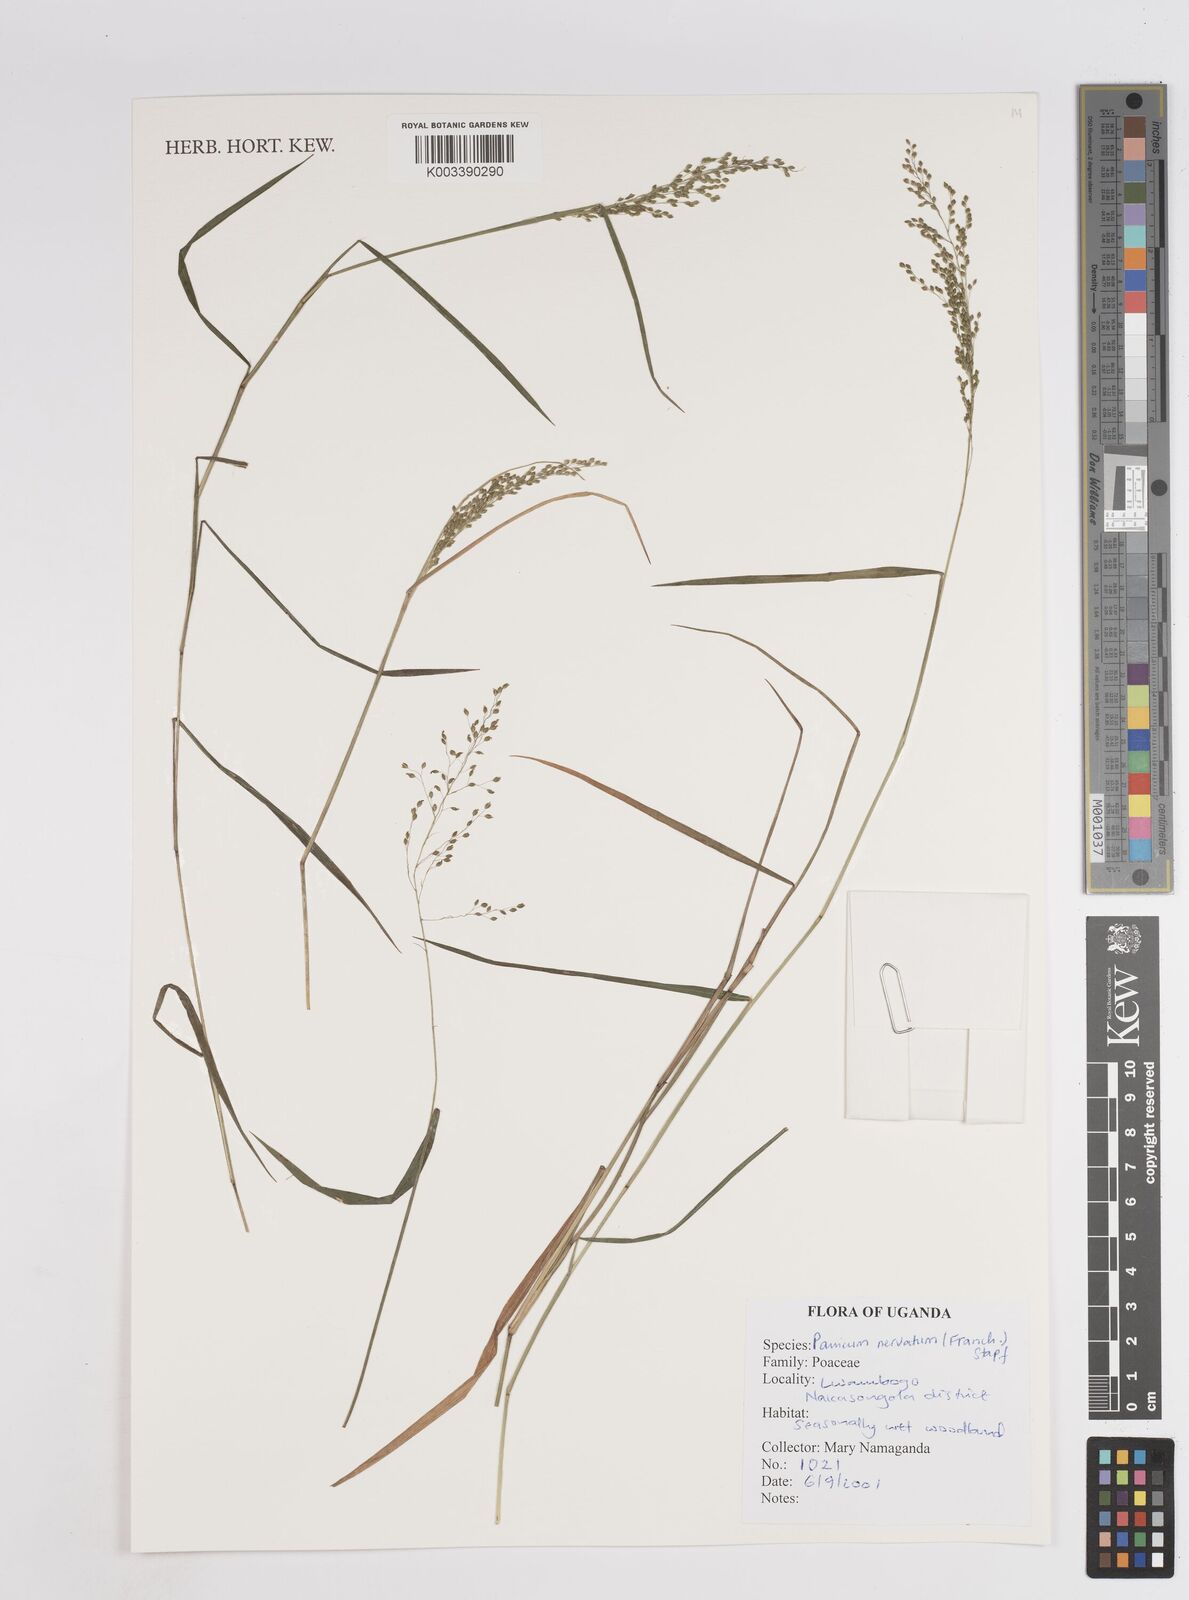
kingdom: Plantae
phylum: Tracheophyta
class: Liliopsida
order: Poales
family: Poaceae
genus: Trichanthecium
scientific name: Trichanthecium nervatum
